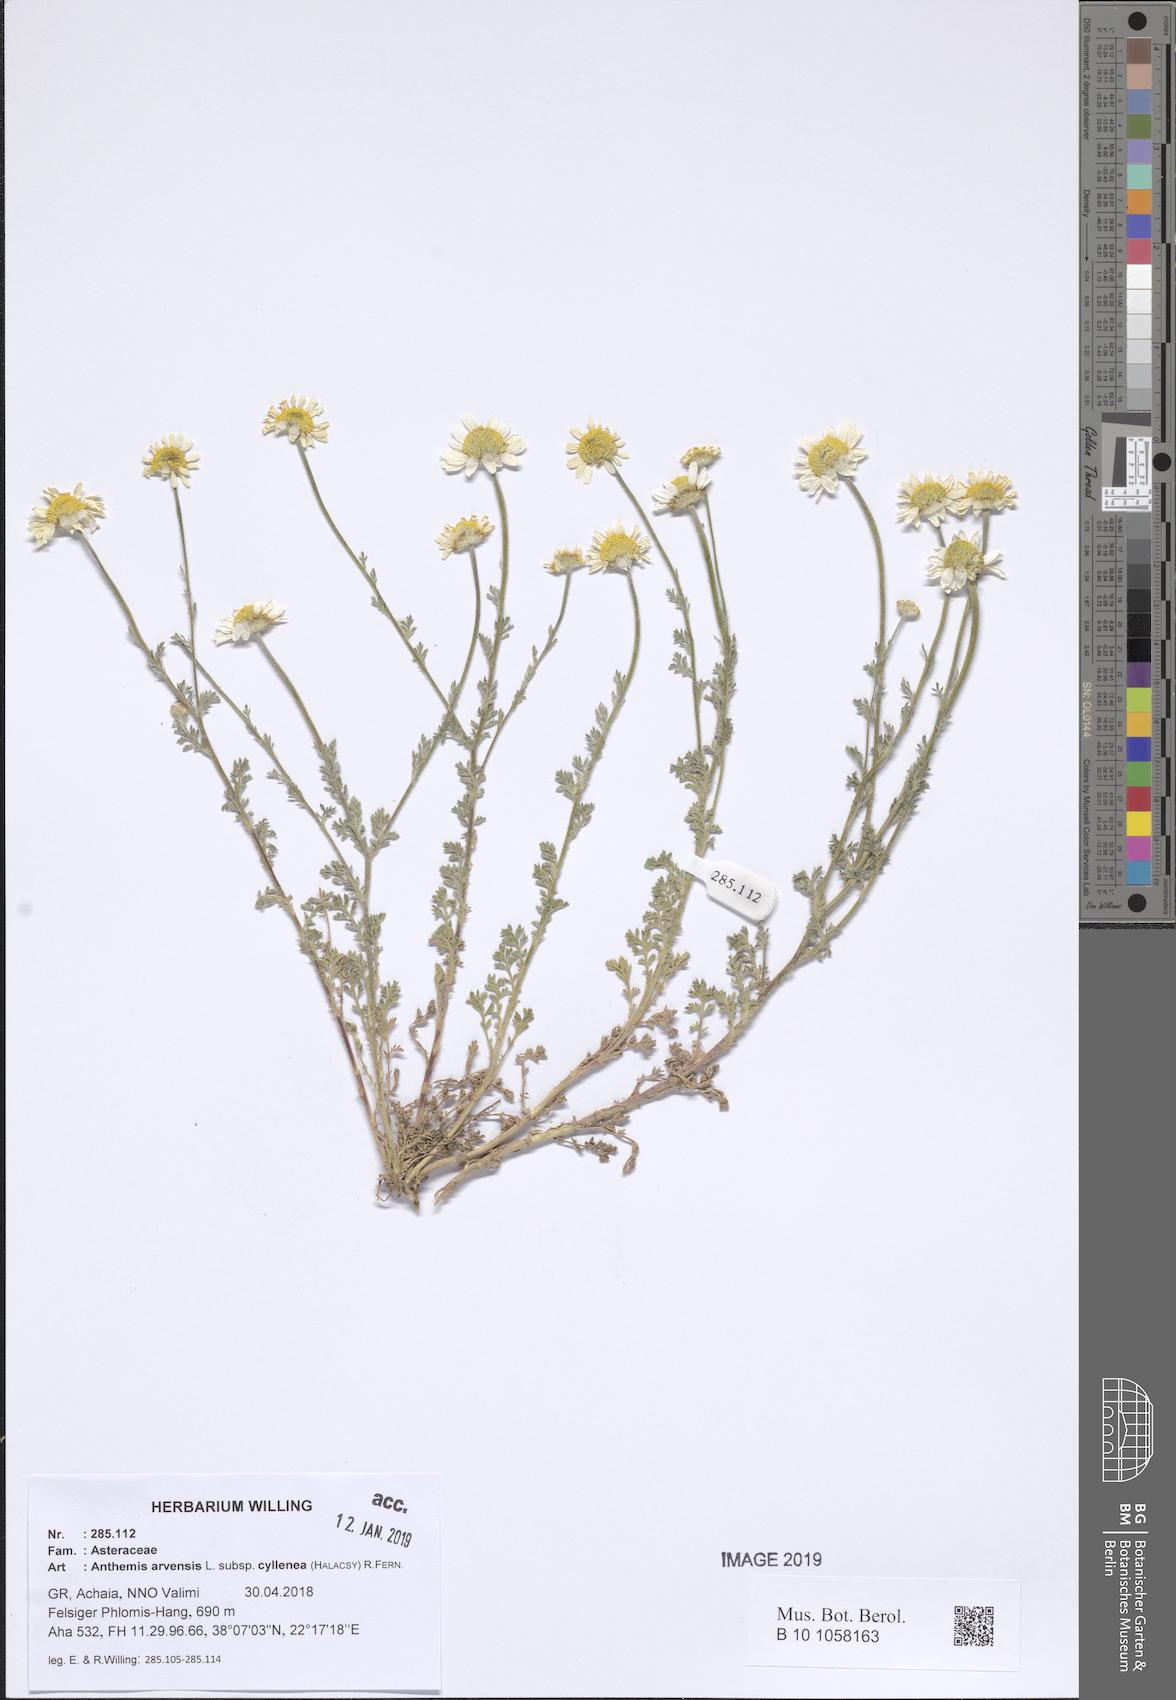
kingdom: Plantae
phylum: Tracheophyta
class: Magnoliopsida
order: Asterales
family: Asteraceae
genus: Anthemis
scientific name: Anthemis arvensis
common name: Corn chamomile
